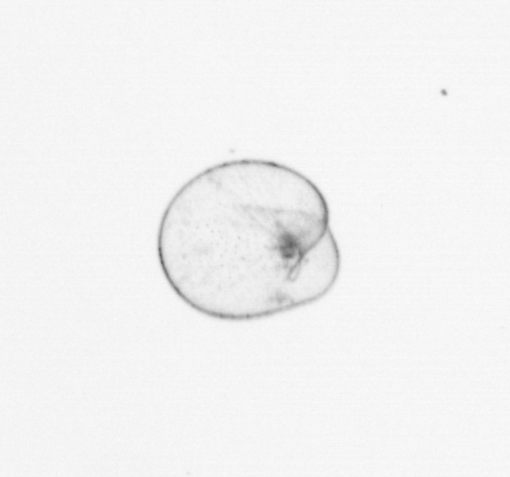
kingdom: Chromista
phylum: Myzozoa
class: Dinophyceae
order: Noctilucales
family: Noctilucaceae
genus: Noctiluca
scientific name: Noctiluca scintillans
